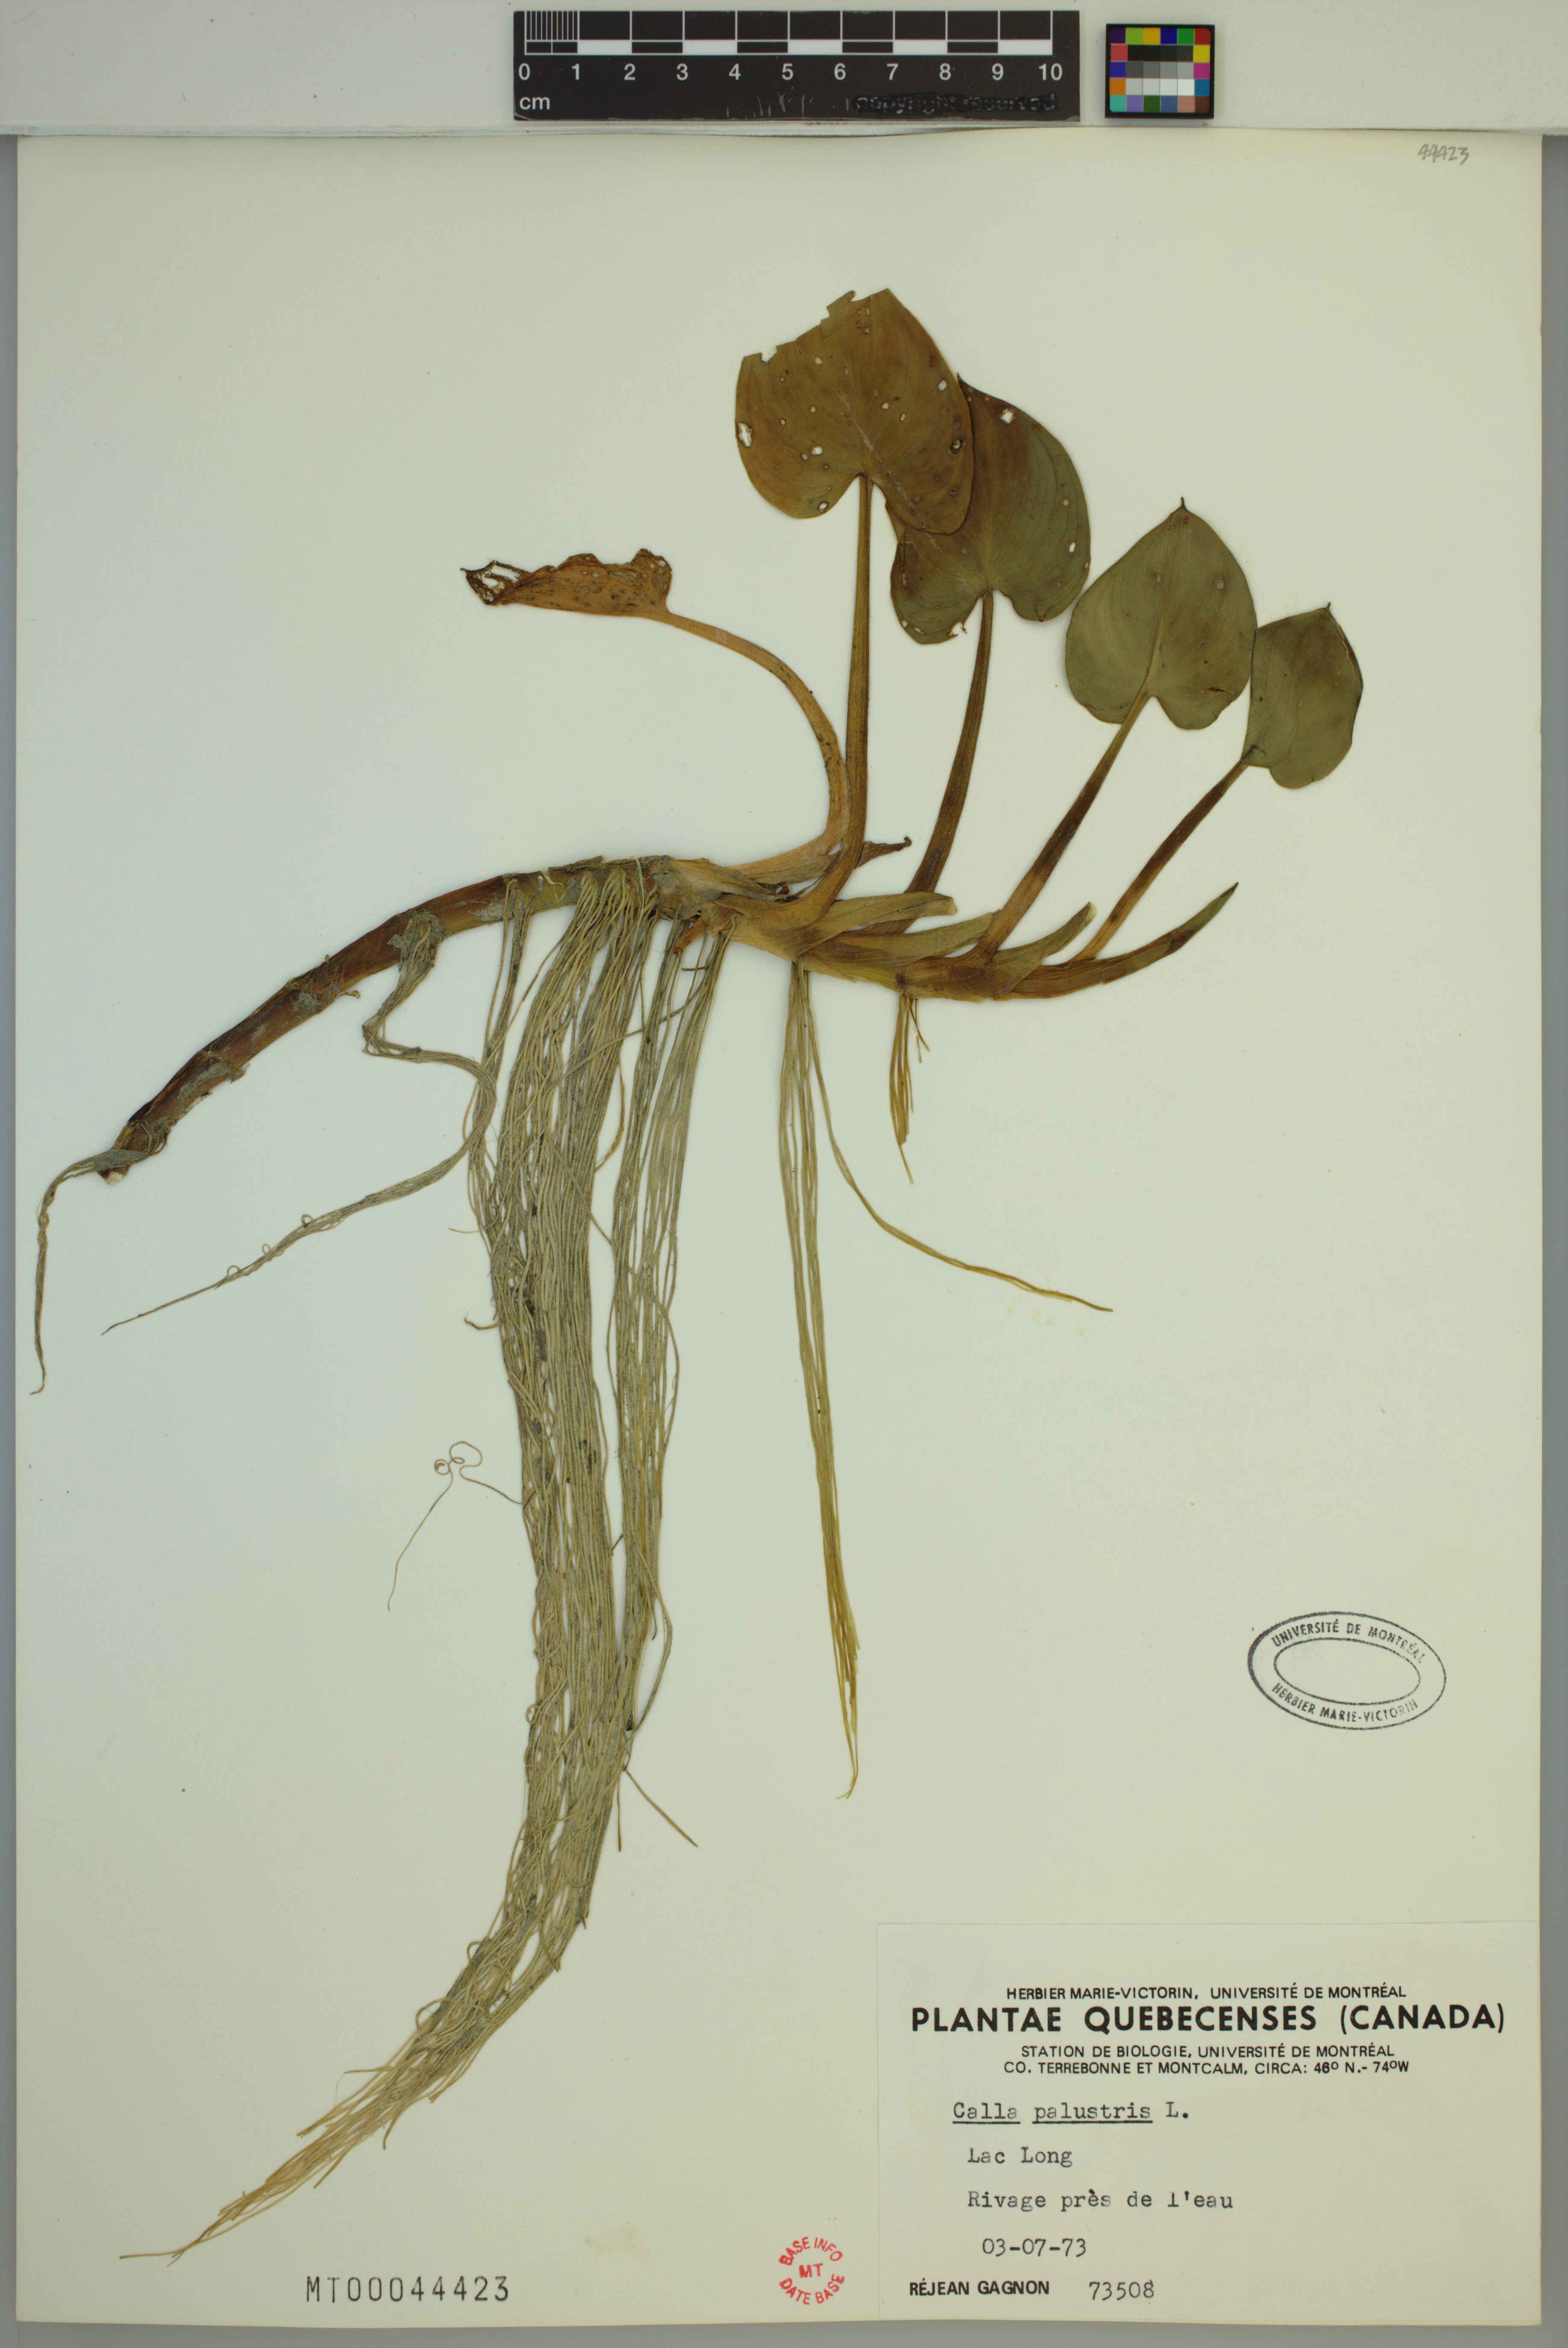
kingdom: Plantae
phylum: Tracheophyta
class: Liliopsida
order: Alismatales
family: Araceae
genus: Calla
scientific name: Calla palustris
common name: Bog arum
